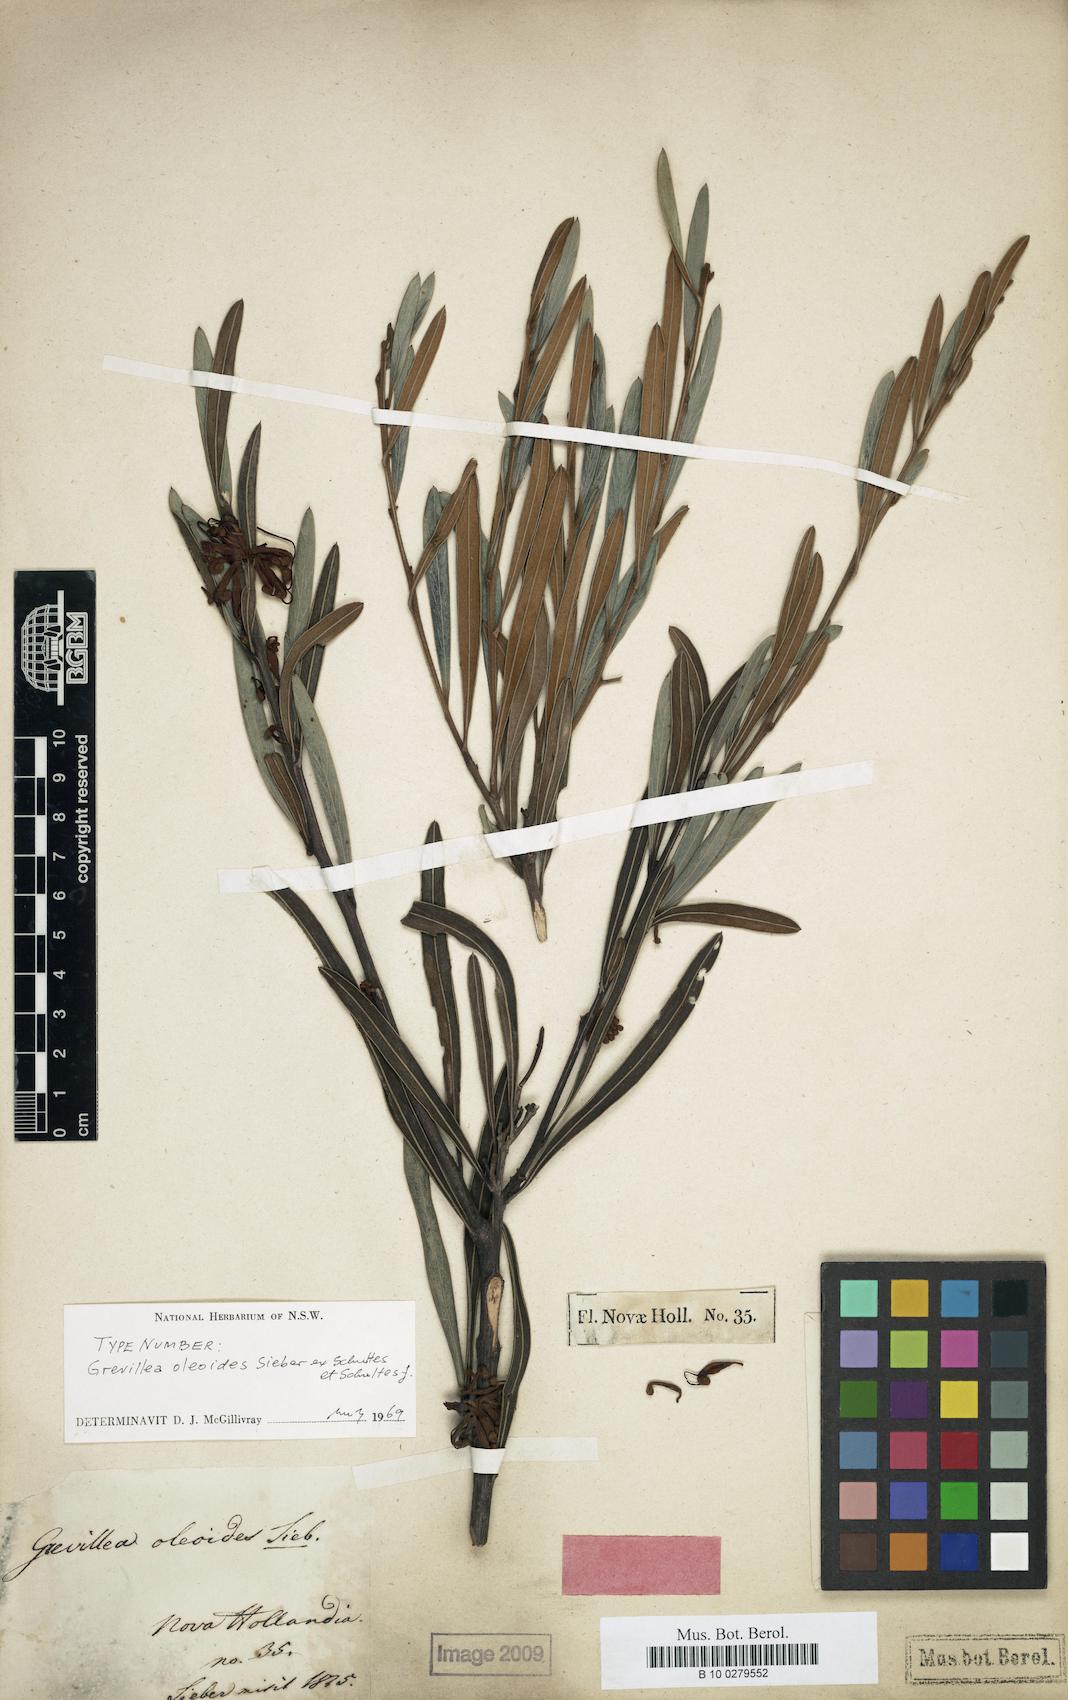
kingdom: Plantae
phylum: Tracheophyta
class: Magnoliopsida
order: Proteales
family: Proteaceae
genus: Grevillea
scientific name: Grevillea oleoides
